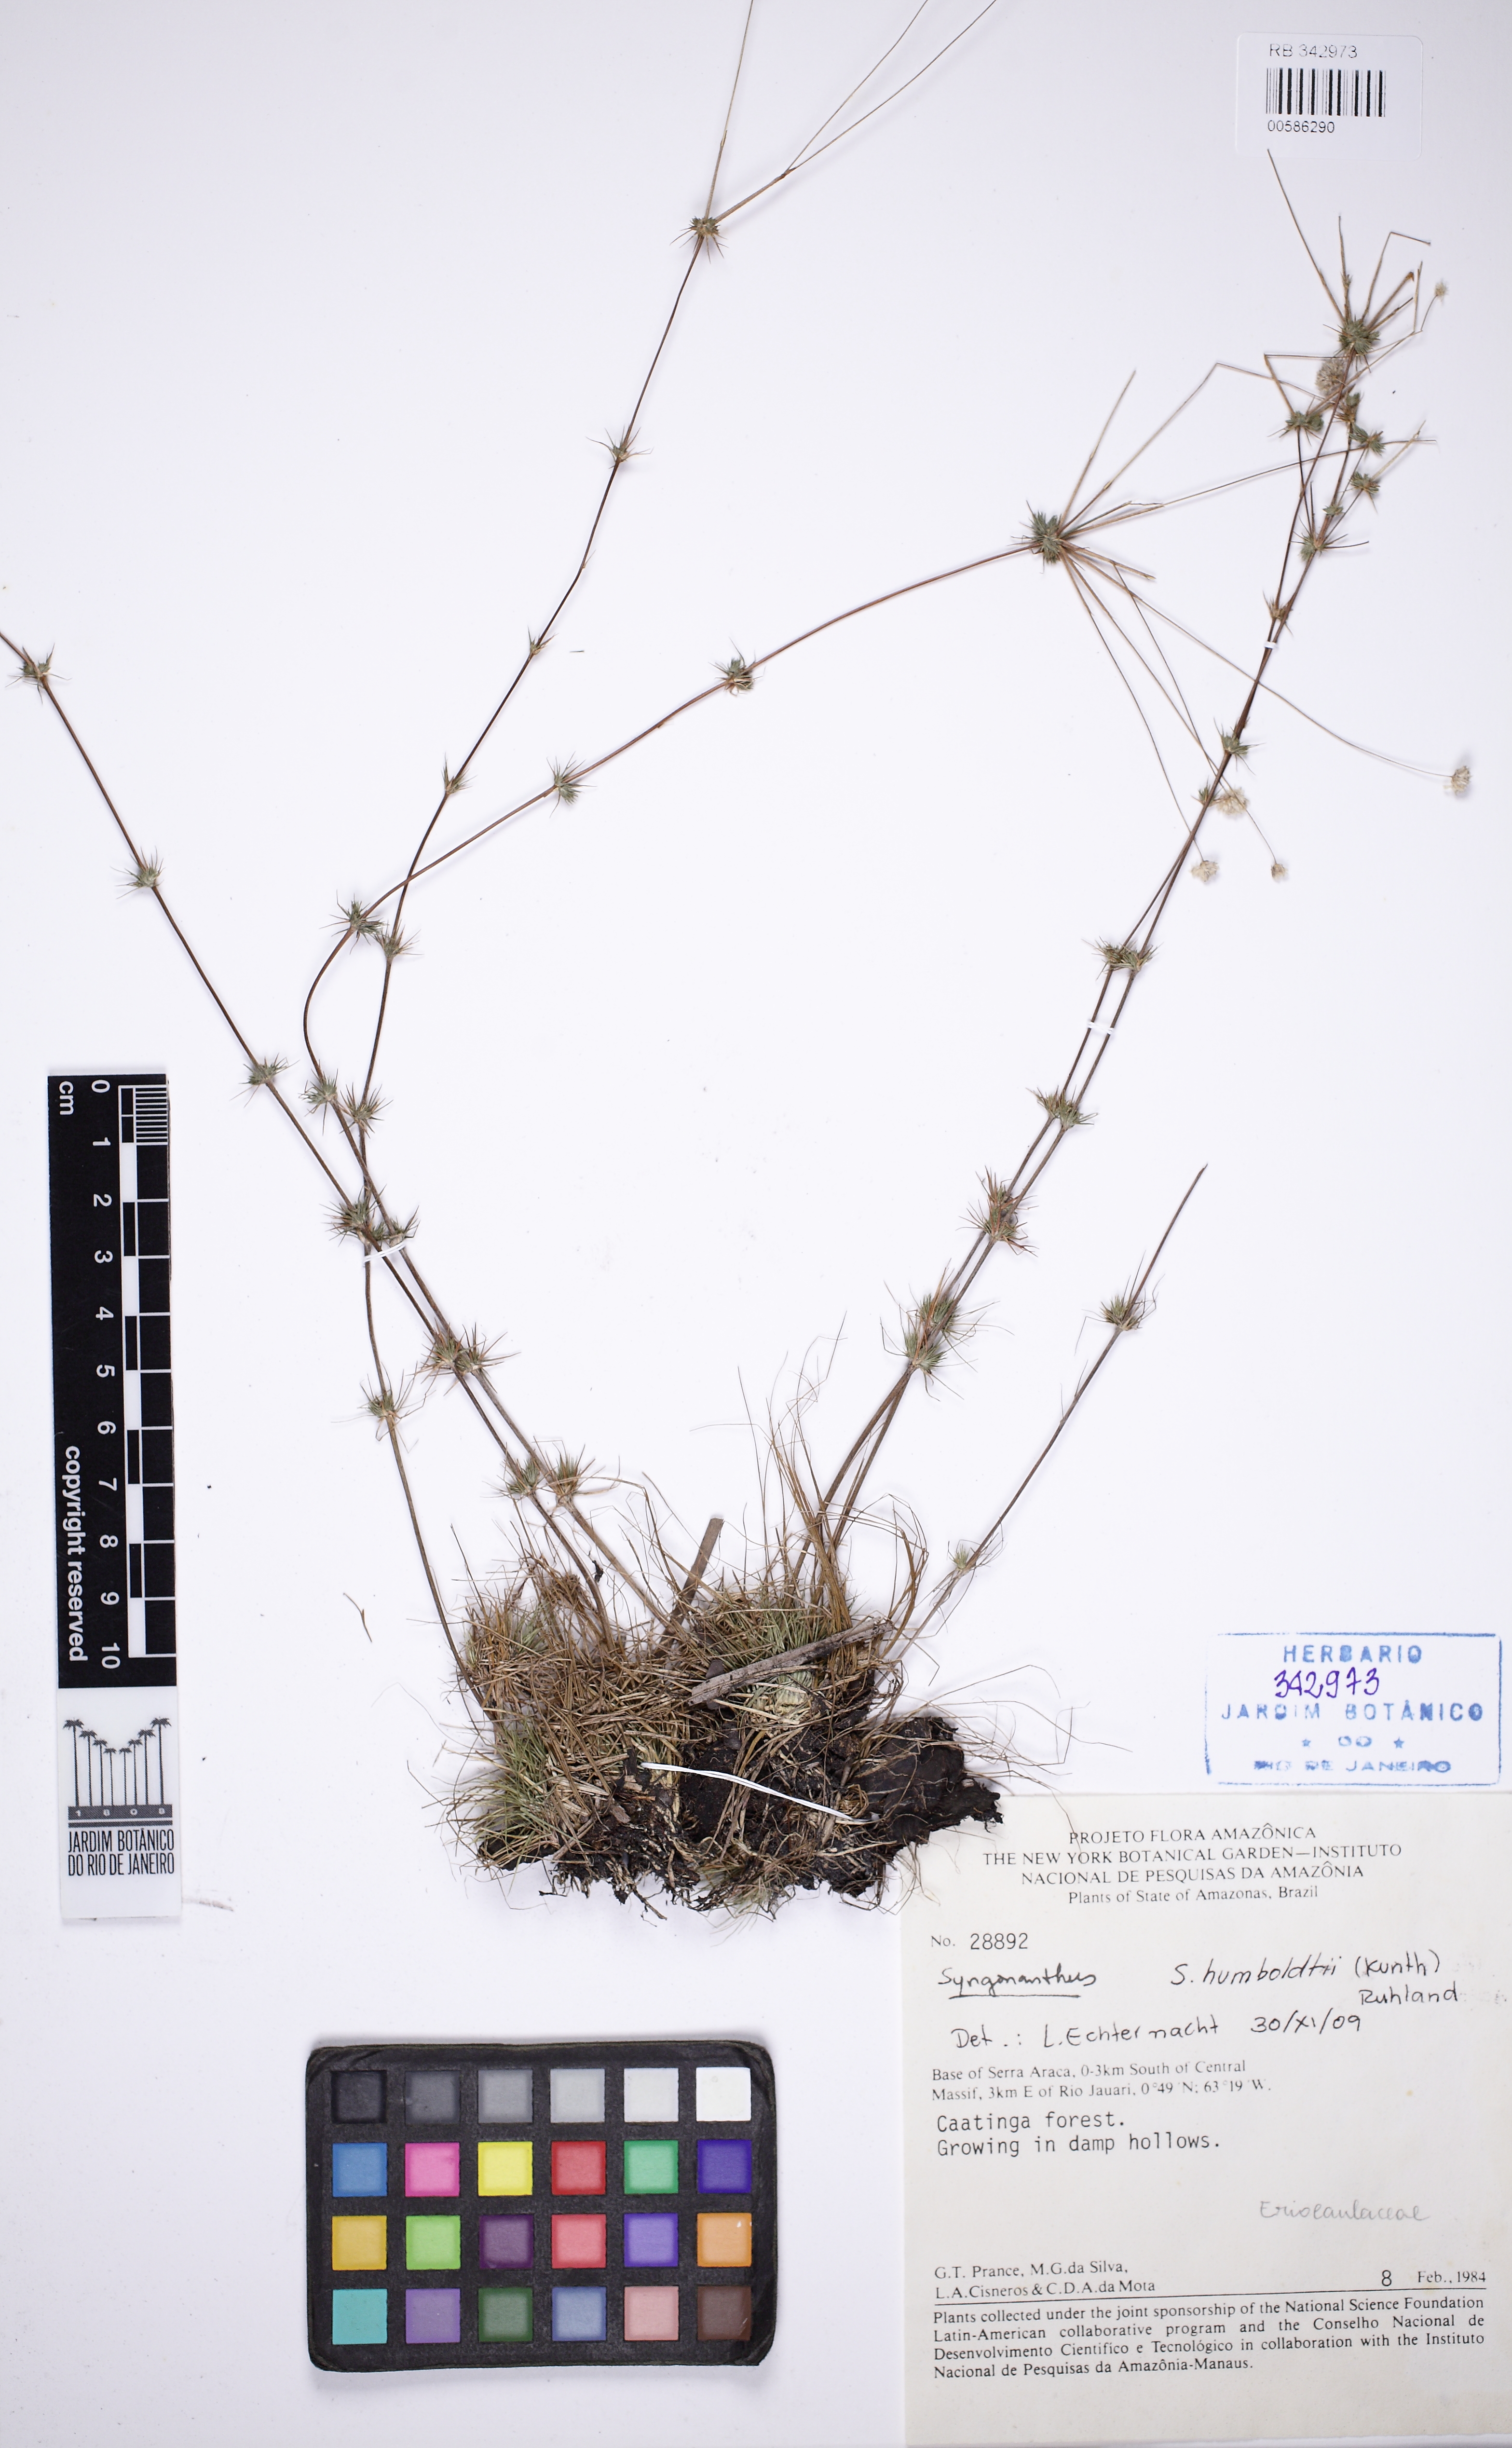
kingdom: Plantae
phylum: Tracheophyta
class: Liliopsida
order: Poales
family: Eriocaulaceae
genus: Syngonanthus
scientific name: Syngonanthus humboldtii
